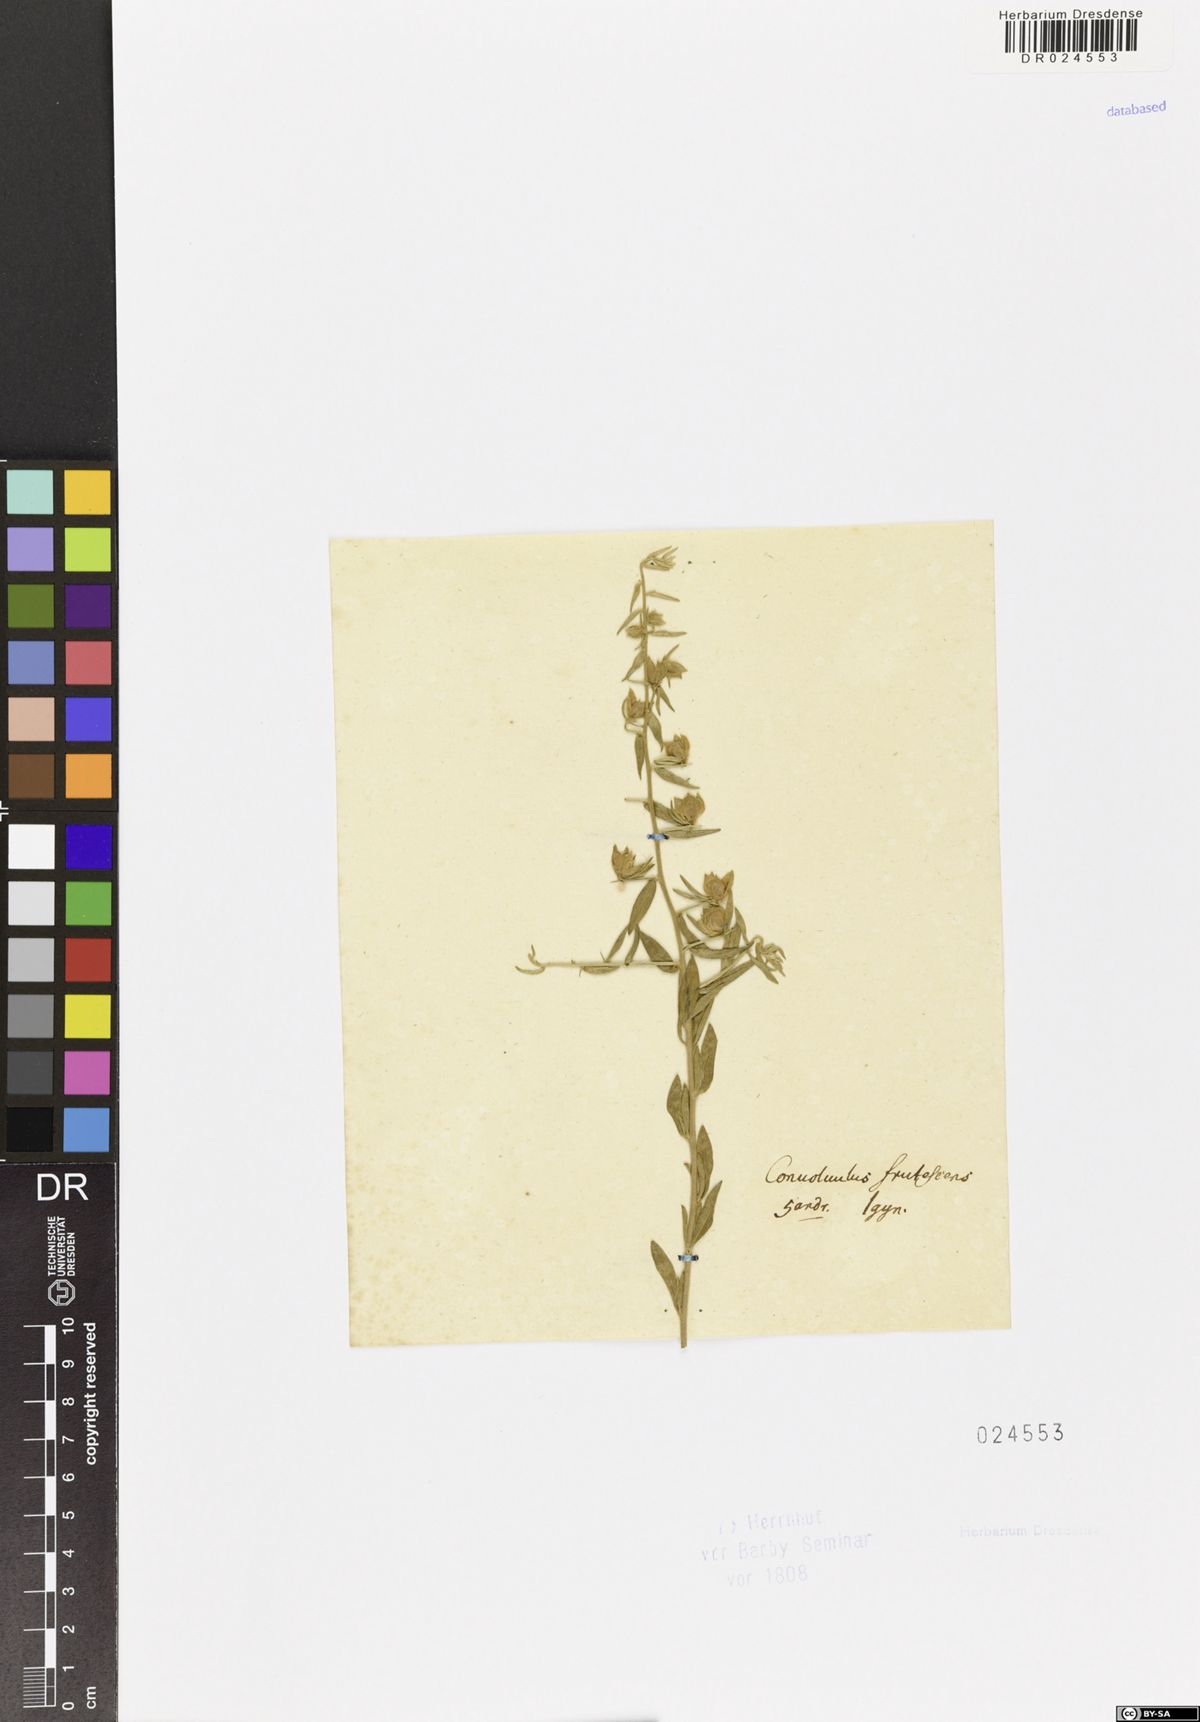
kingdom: Plantae
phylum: Tracheophyta
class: Magnoliopsida
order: Solanales
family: Convolvulaceae
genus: Convolvulus
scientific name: Convolvulus fruticosus
